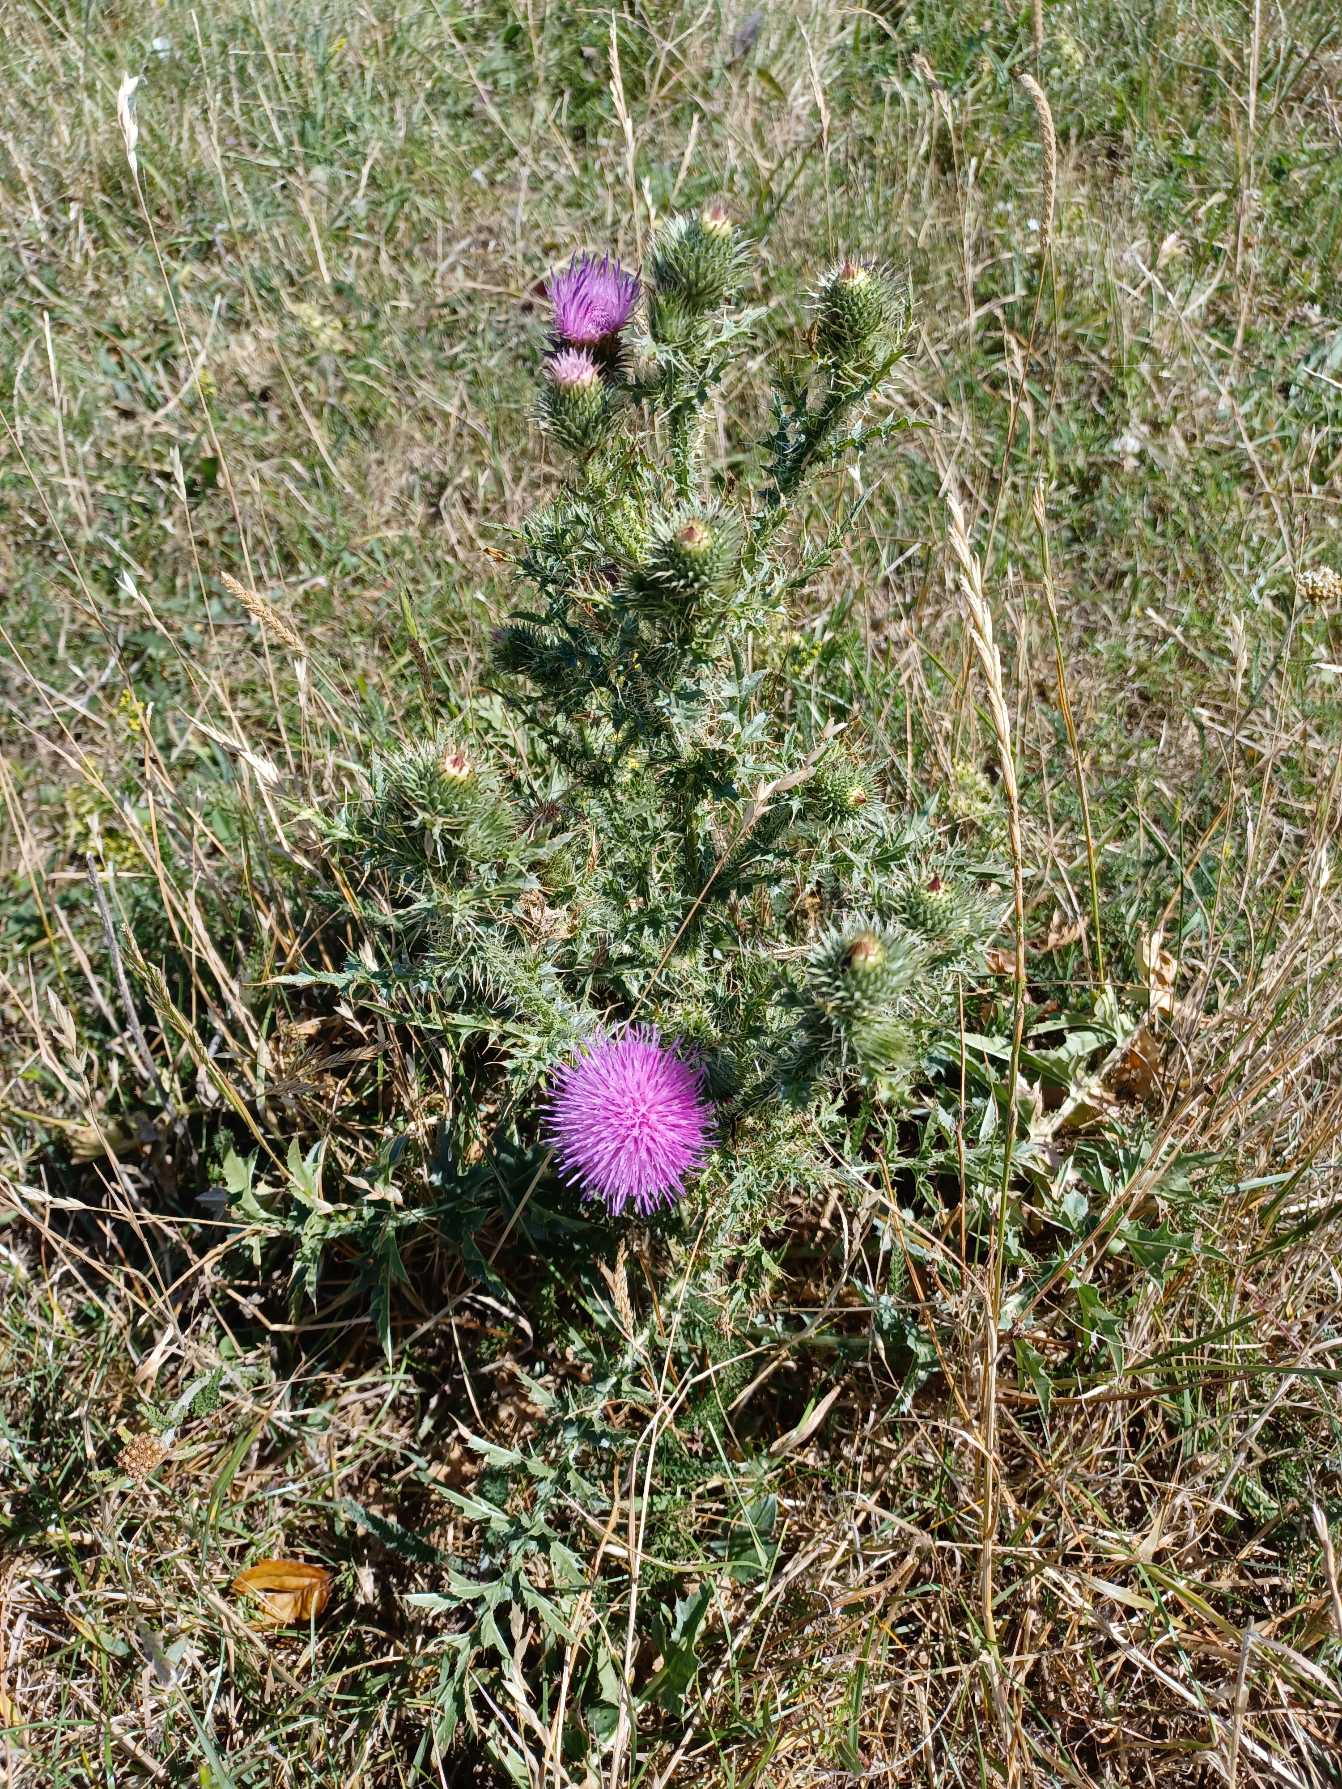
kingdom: Plantae
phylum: Tracheophyta
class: Magnoliopsida
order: Asterales
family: Asteraceae
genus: Carduus
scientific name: Carduus acanthoides
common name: Tornet tidsel
